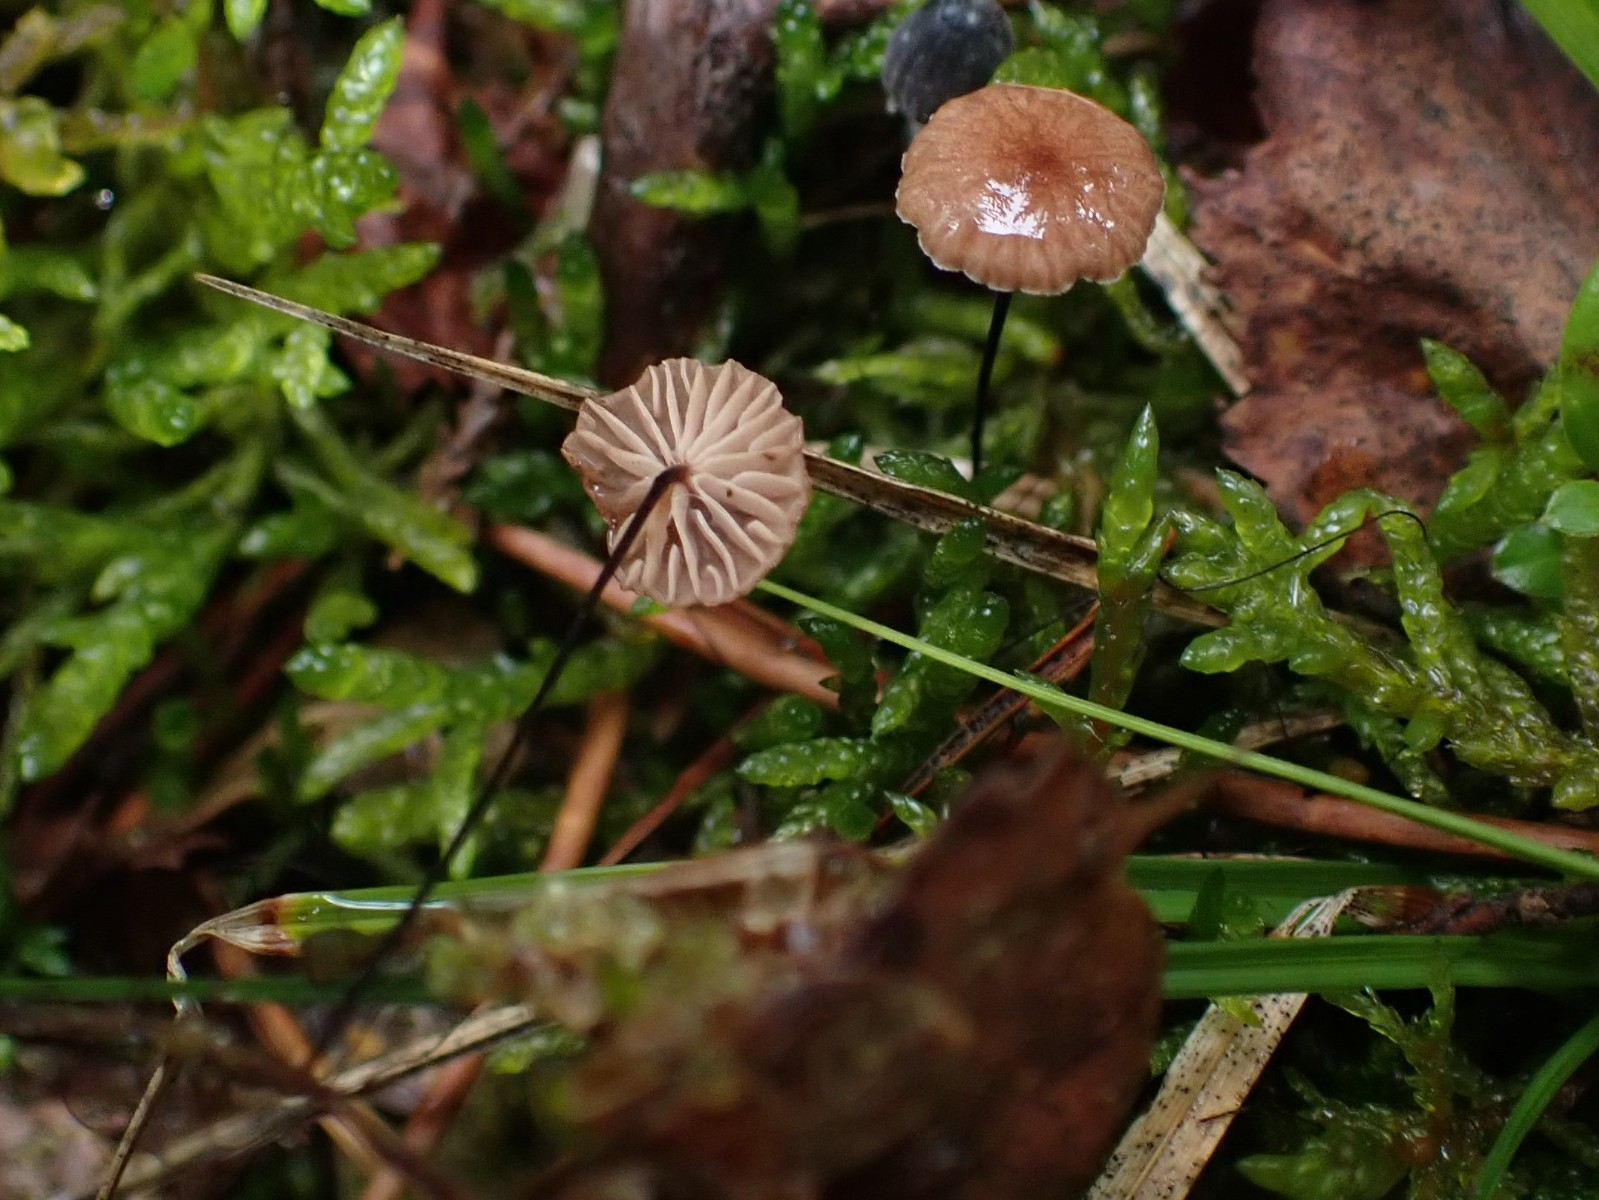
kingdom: Fungi
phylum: Basidiomycota
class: Agaricomycetes
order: Agaricales
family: Omphalotaceae
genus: Gymnopus
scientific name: Gymnopus androsaceus
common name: trådstokket fladhat
